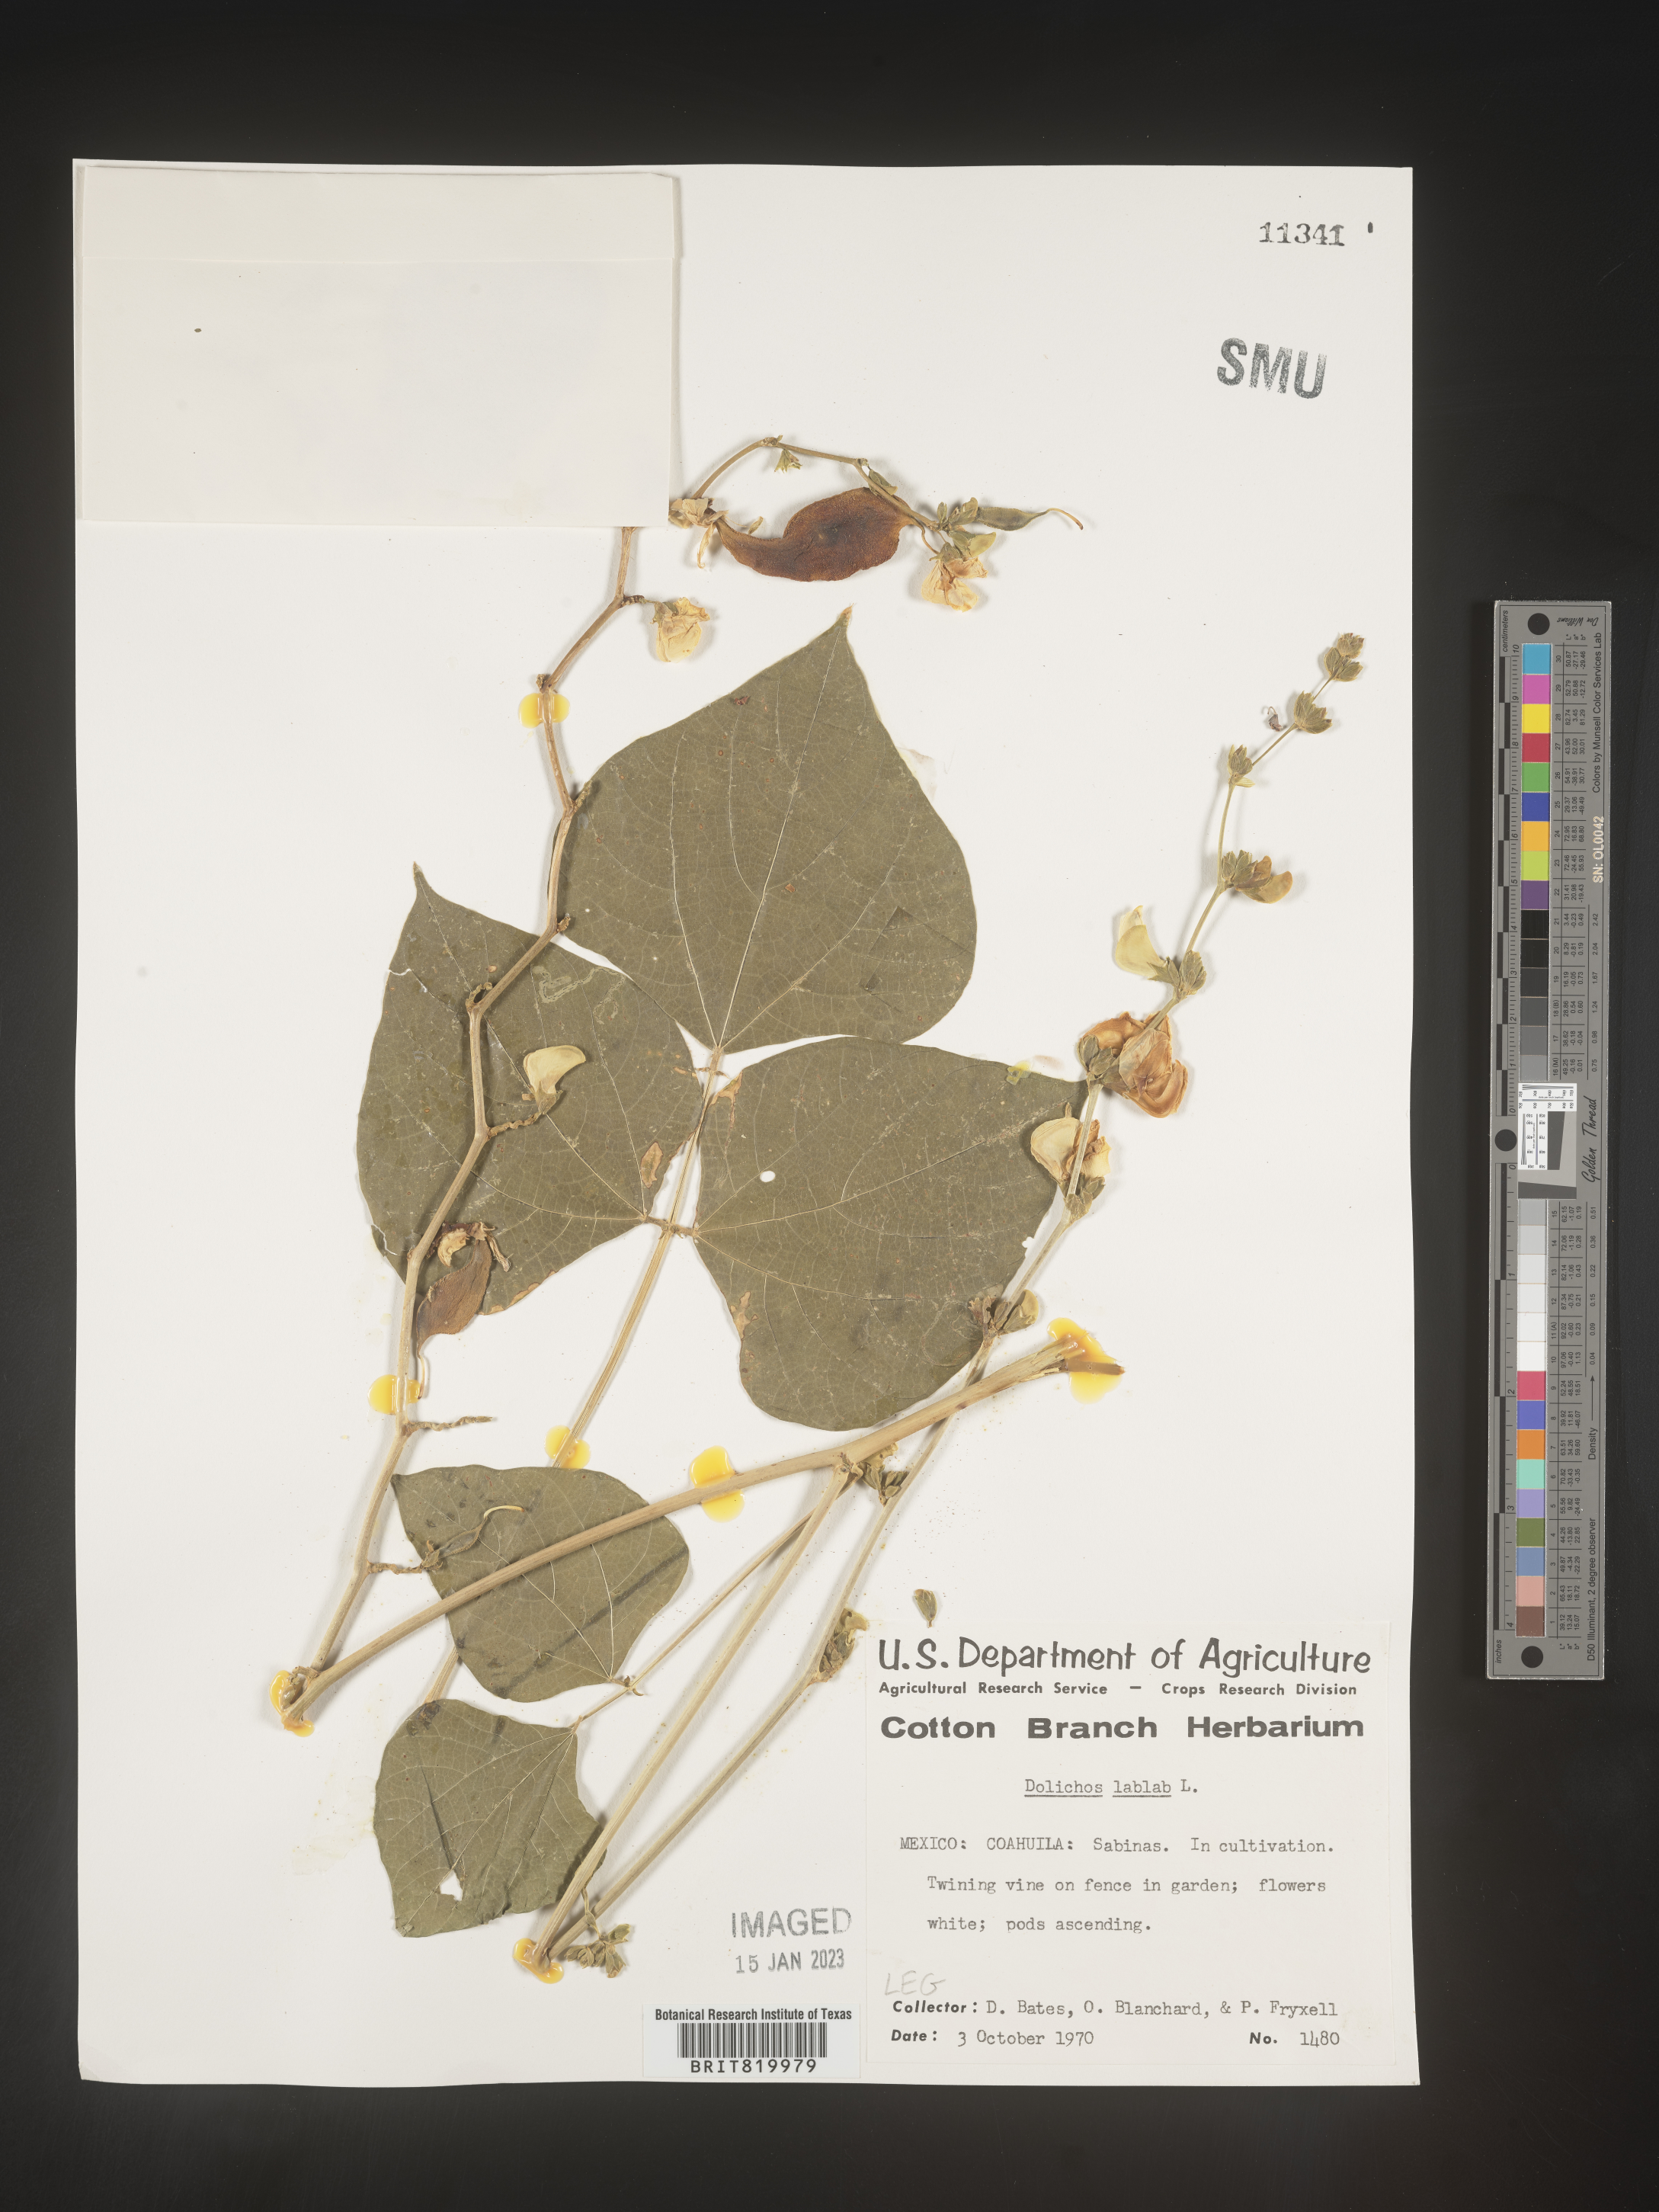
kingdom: Plantae
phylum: Tracheophyta
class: Magnoliopsida
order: Fabales
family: Fabaceae
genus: Dolichos
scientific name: Dolichos
